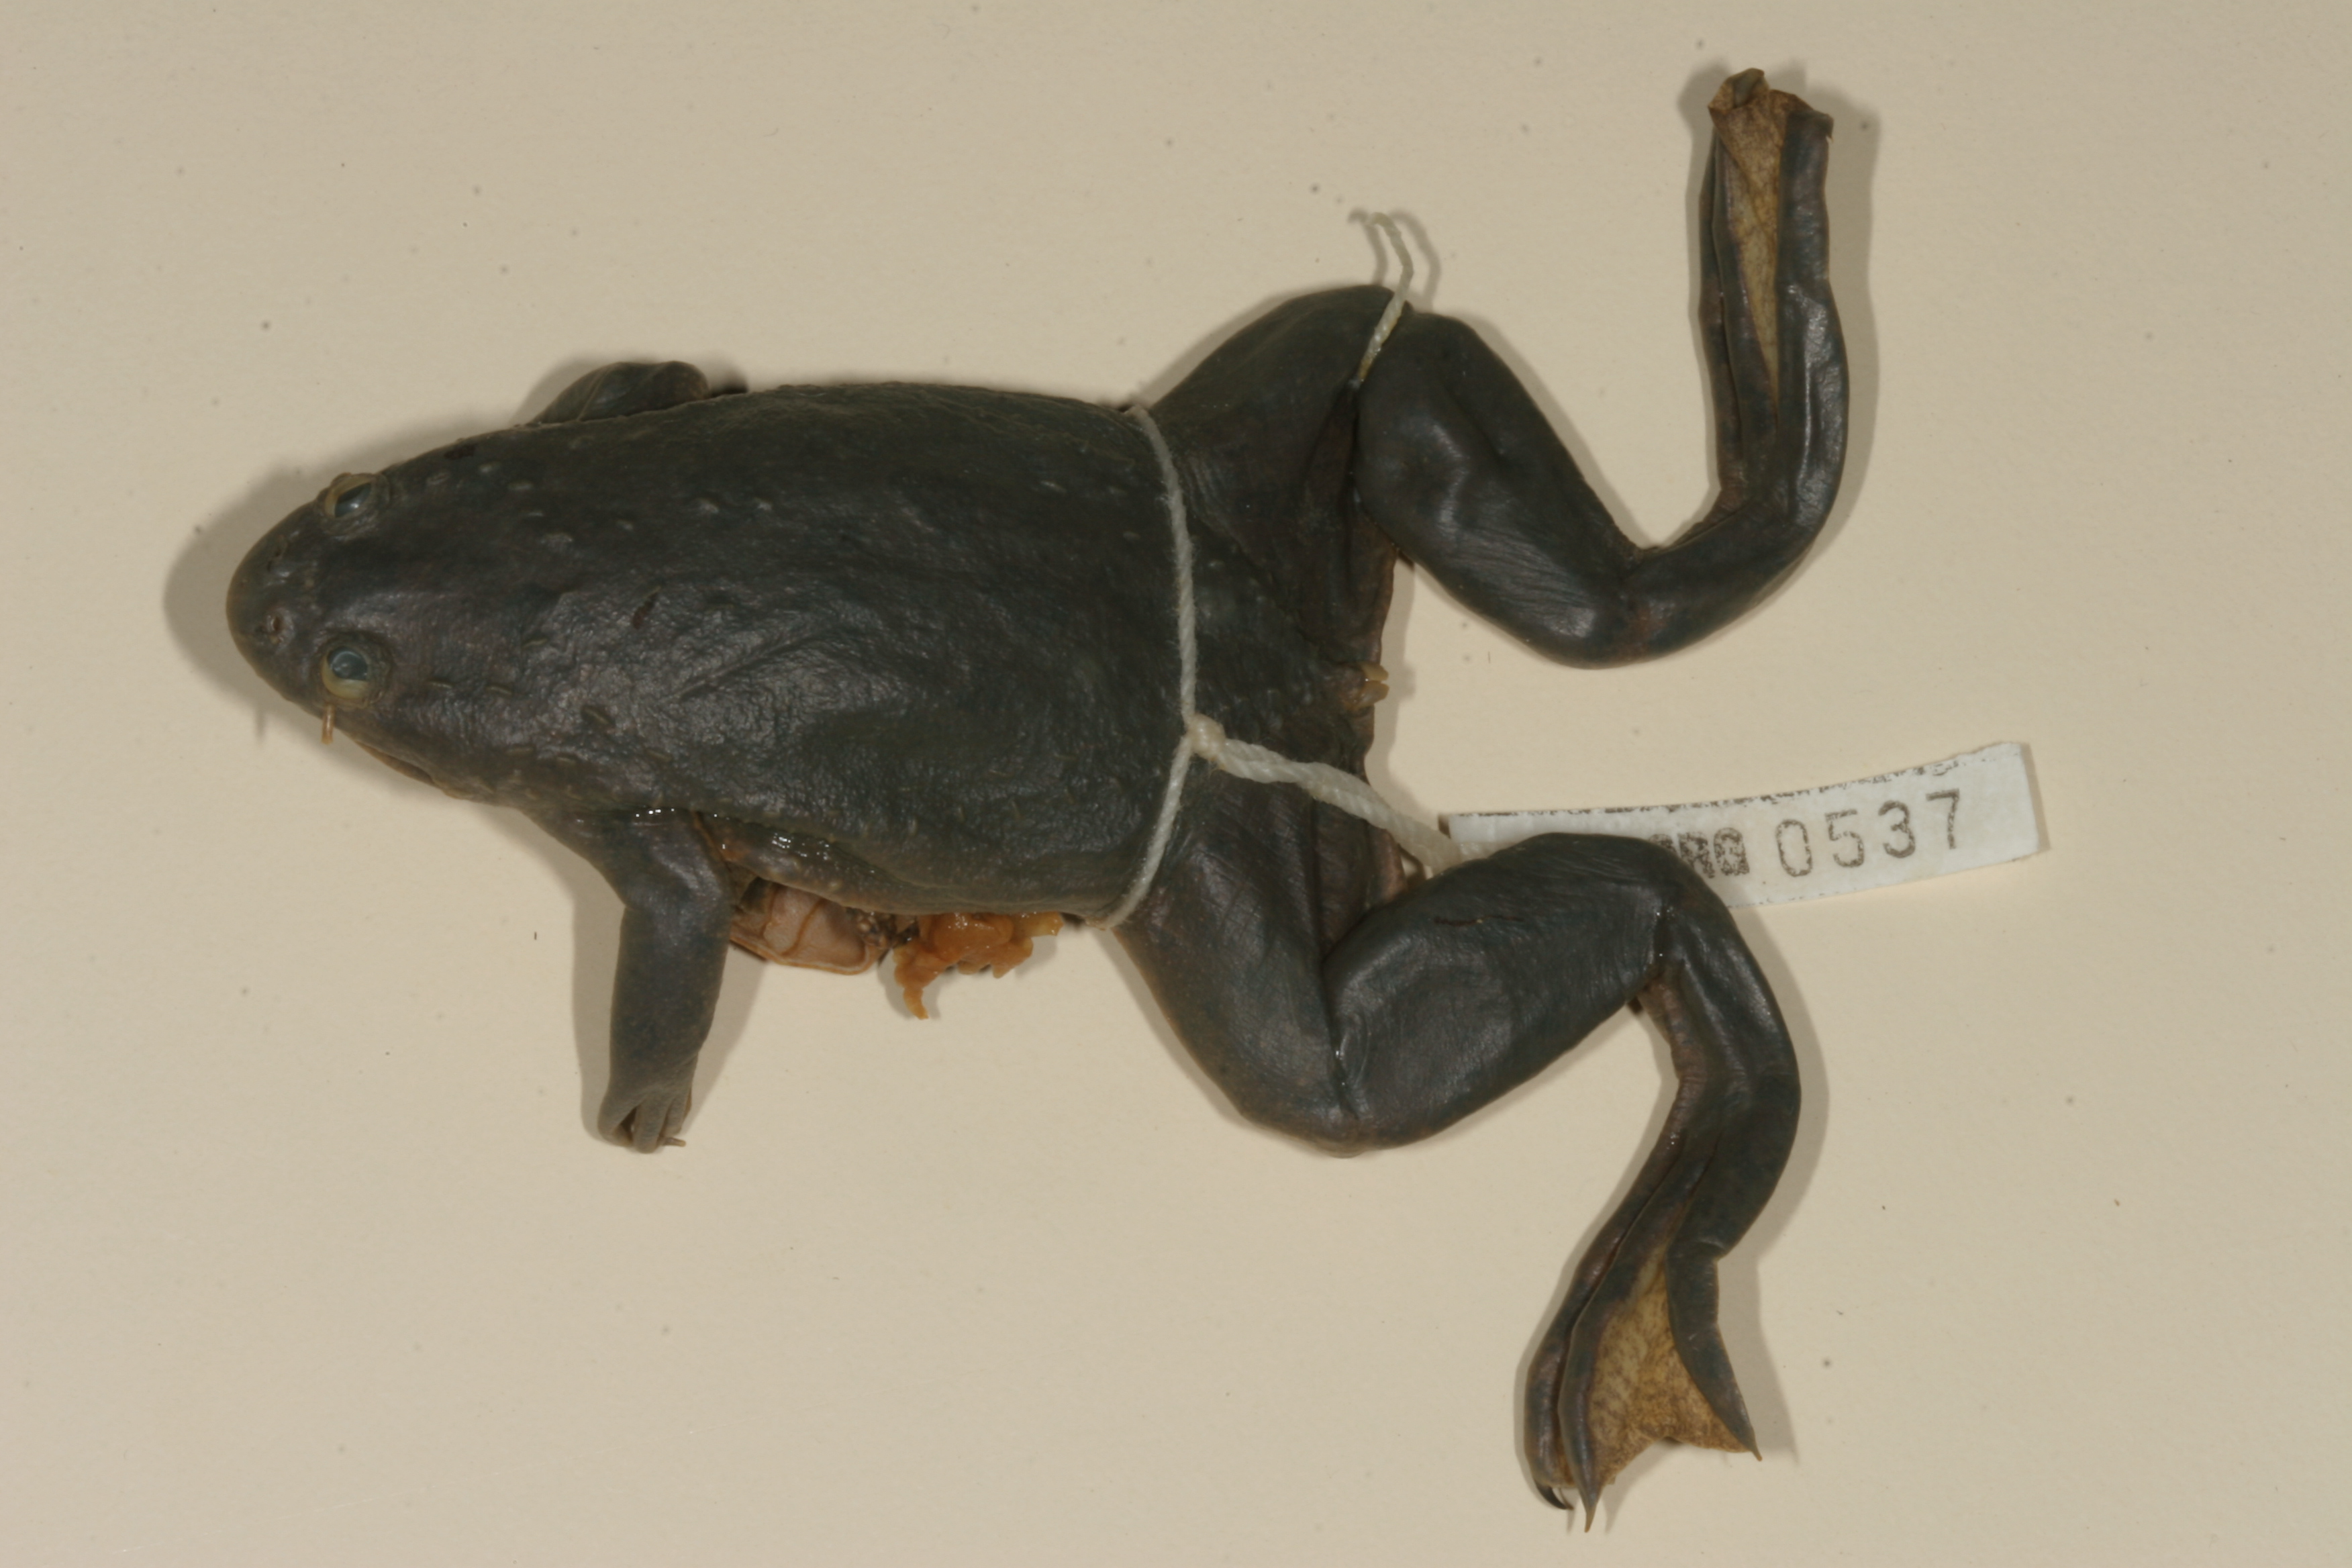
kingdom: Animalia
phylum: Chordata
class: Amphibia
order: Anura
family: Pipidae
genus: Xenopus
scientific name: Xenopus muelleri
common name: Muller's clawed frog
